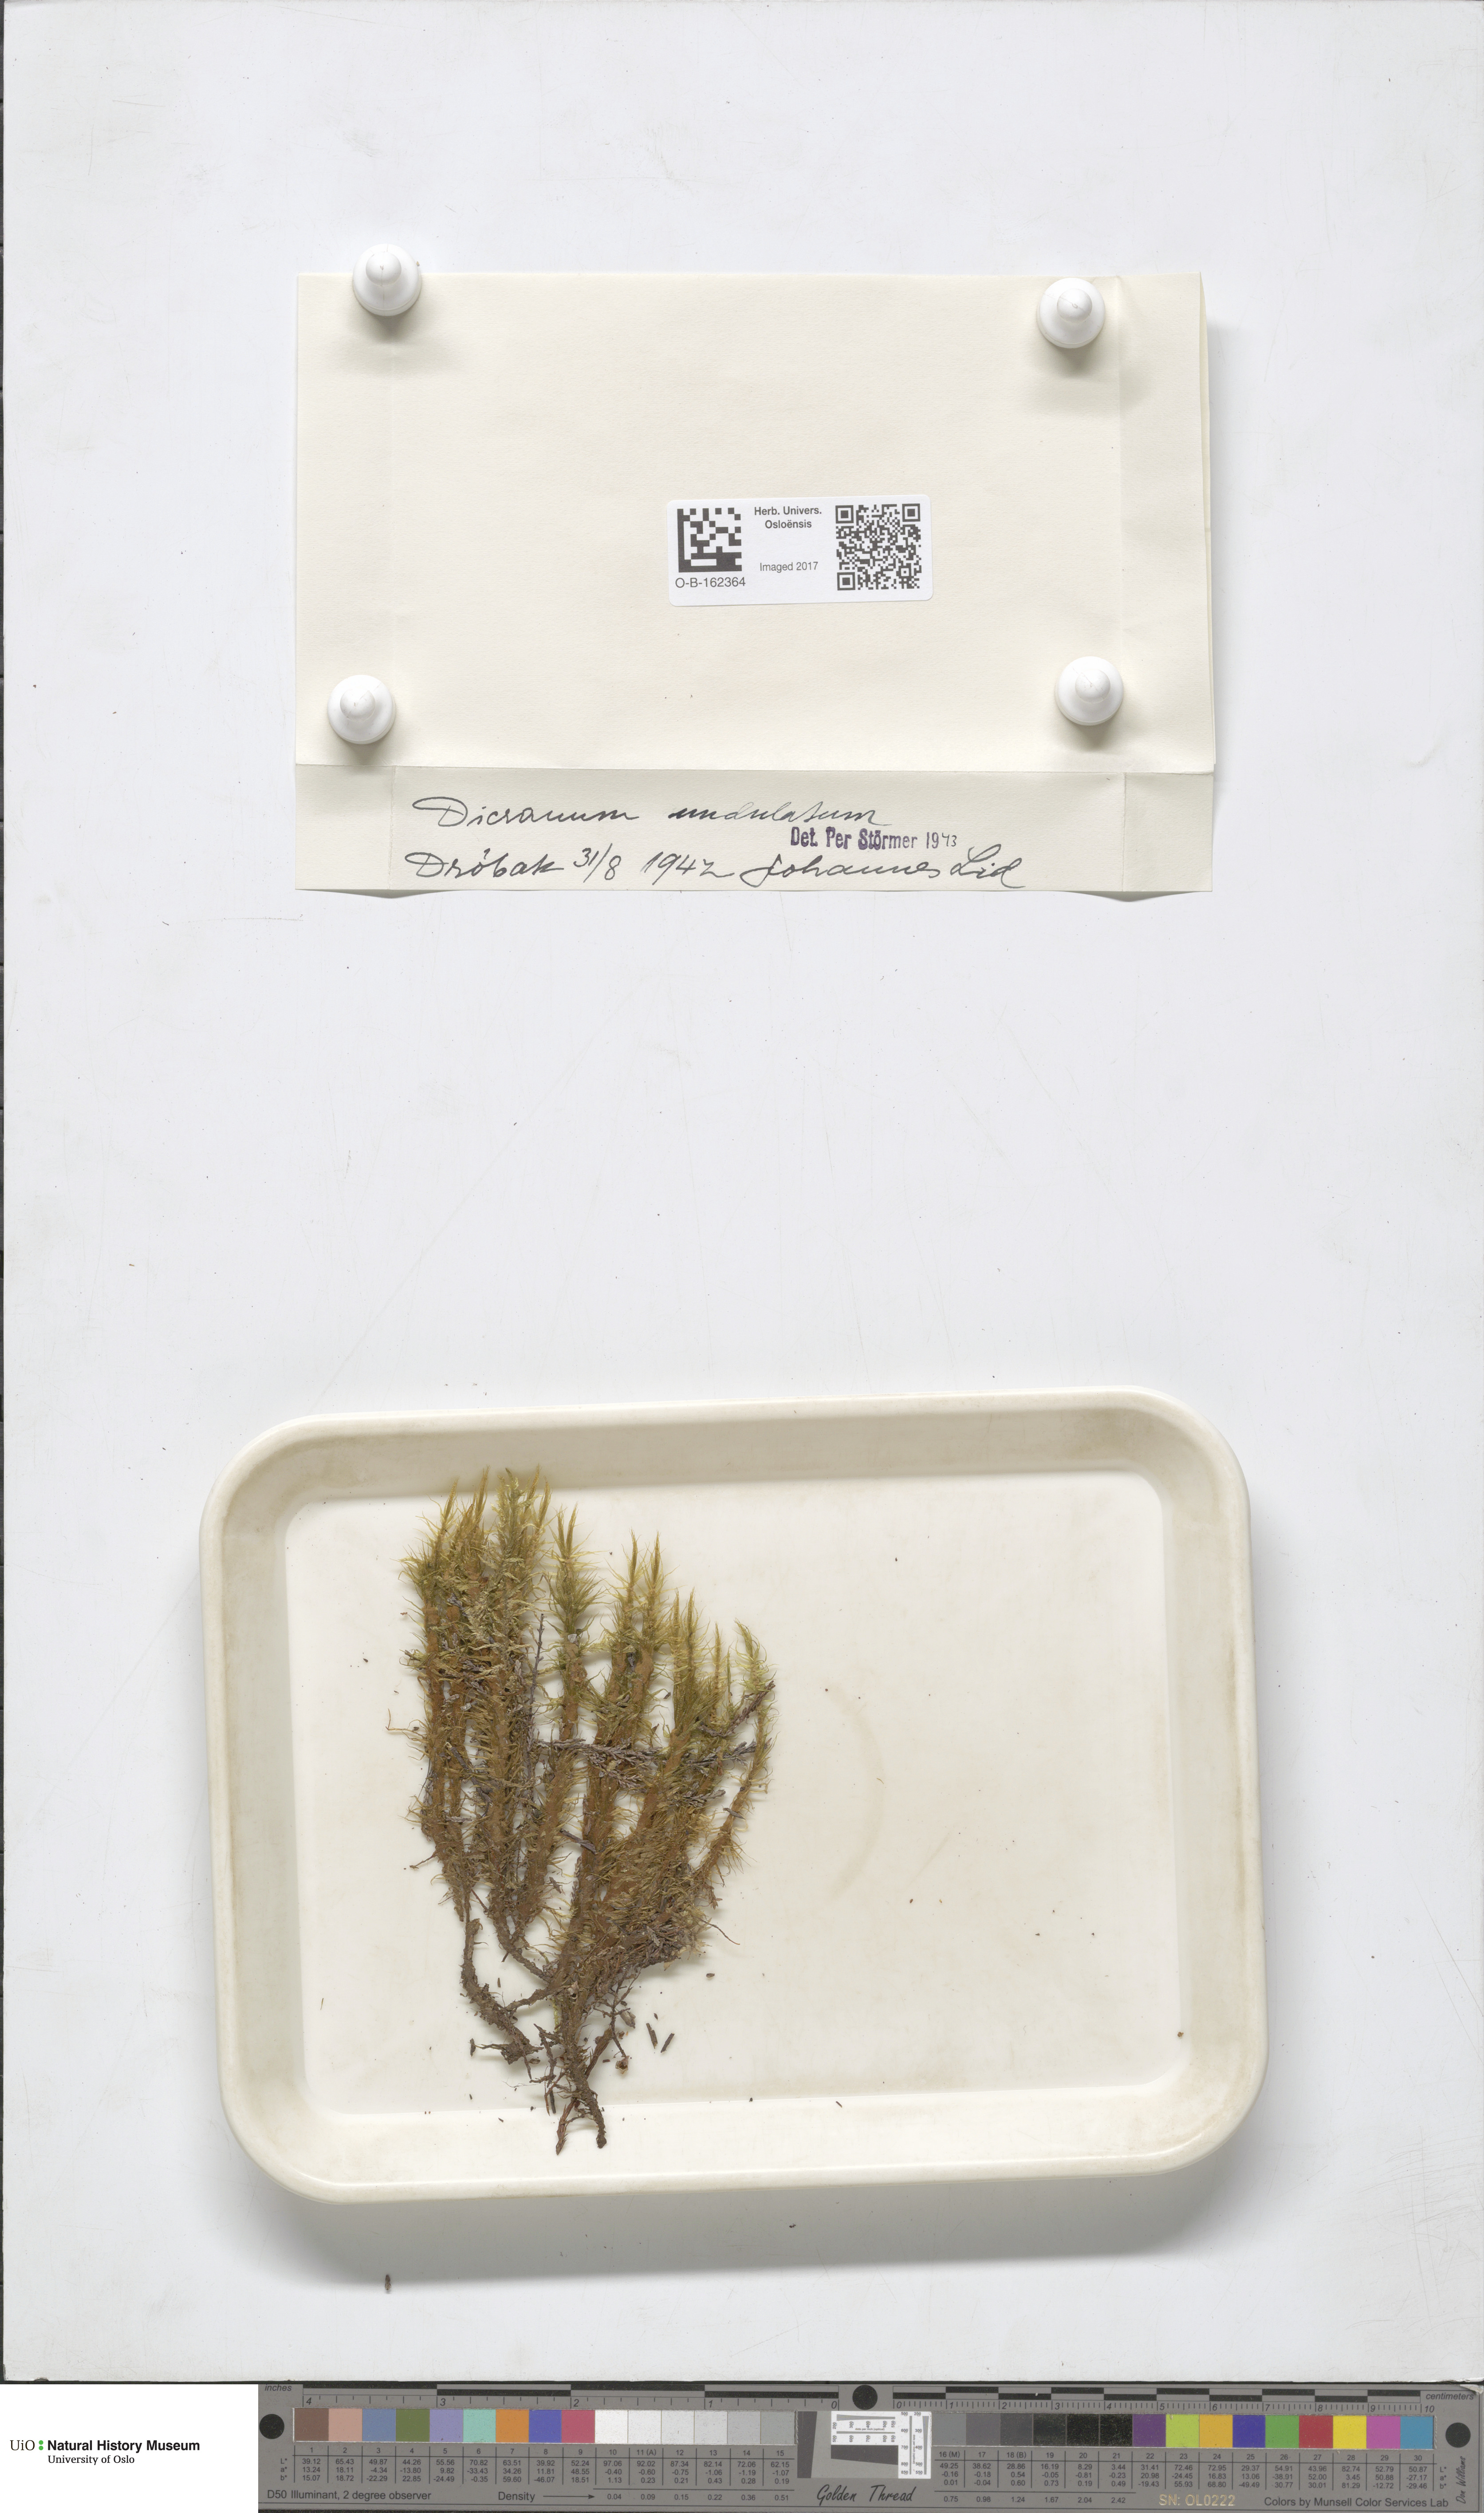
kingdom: Plantae
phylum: Bryophyta
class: Bryopsida
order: Dicranales
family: Dicranaceae
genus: Dicranum
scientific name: Dicranum polysetum
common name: Rugose fork-moss
